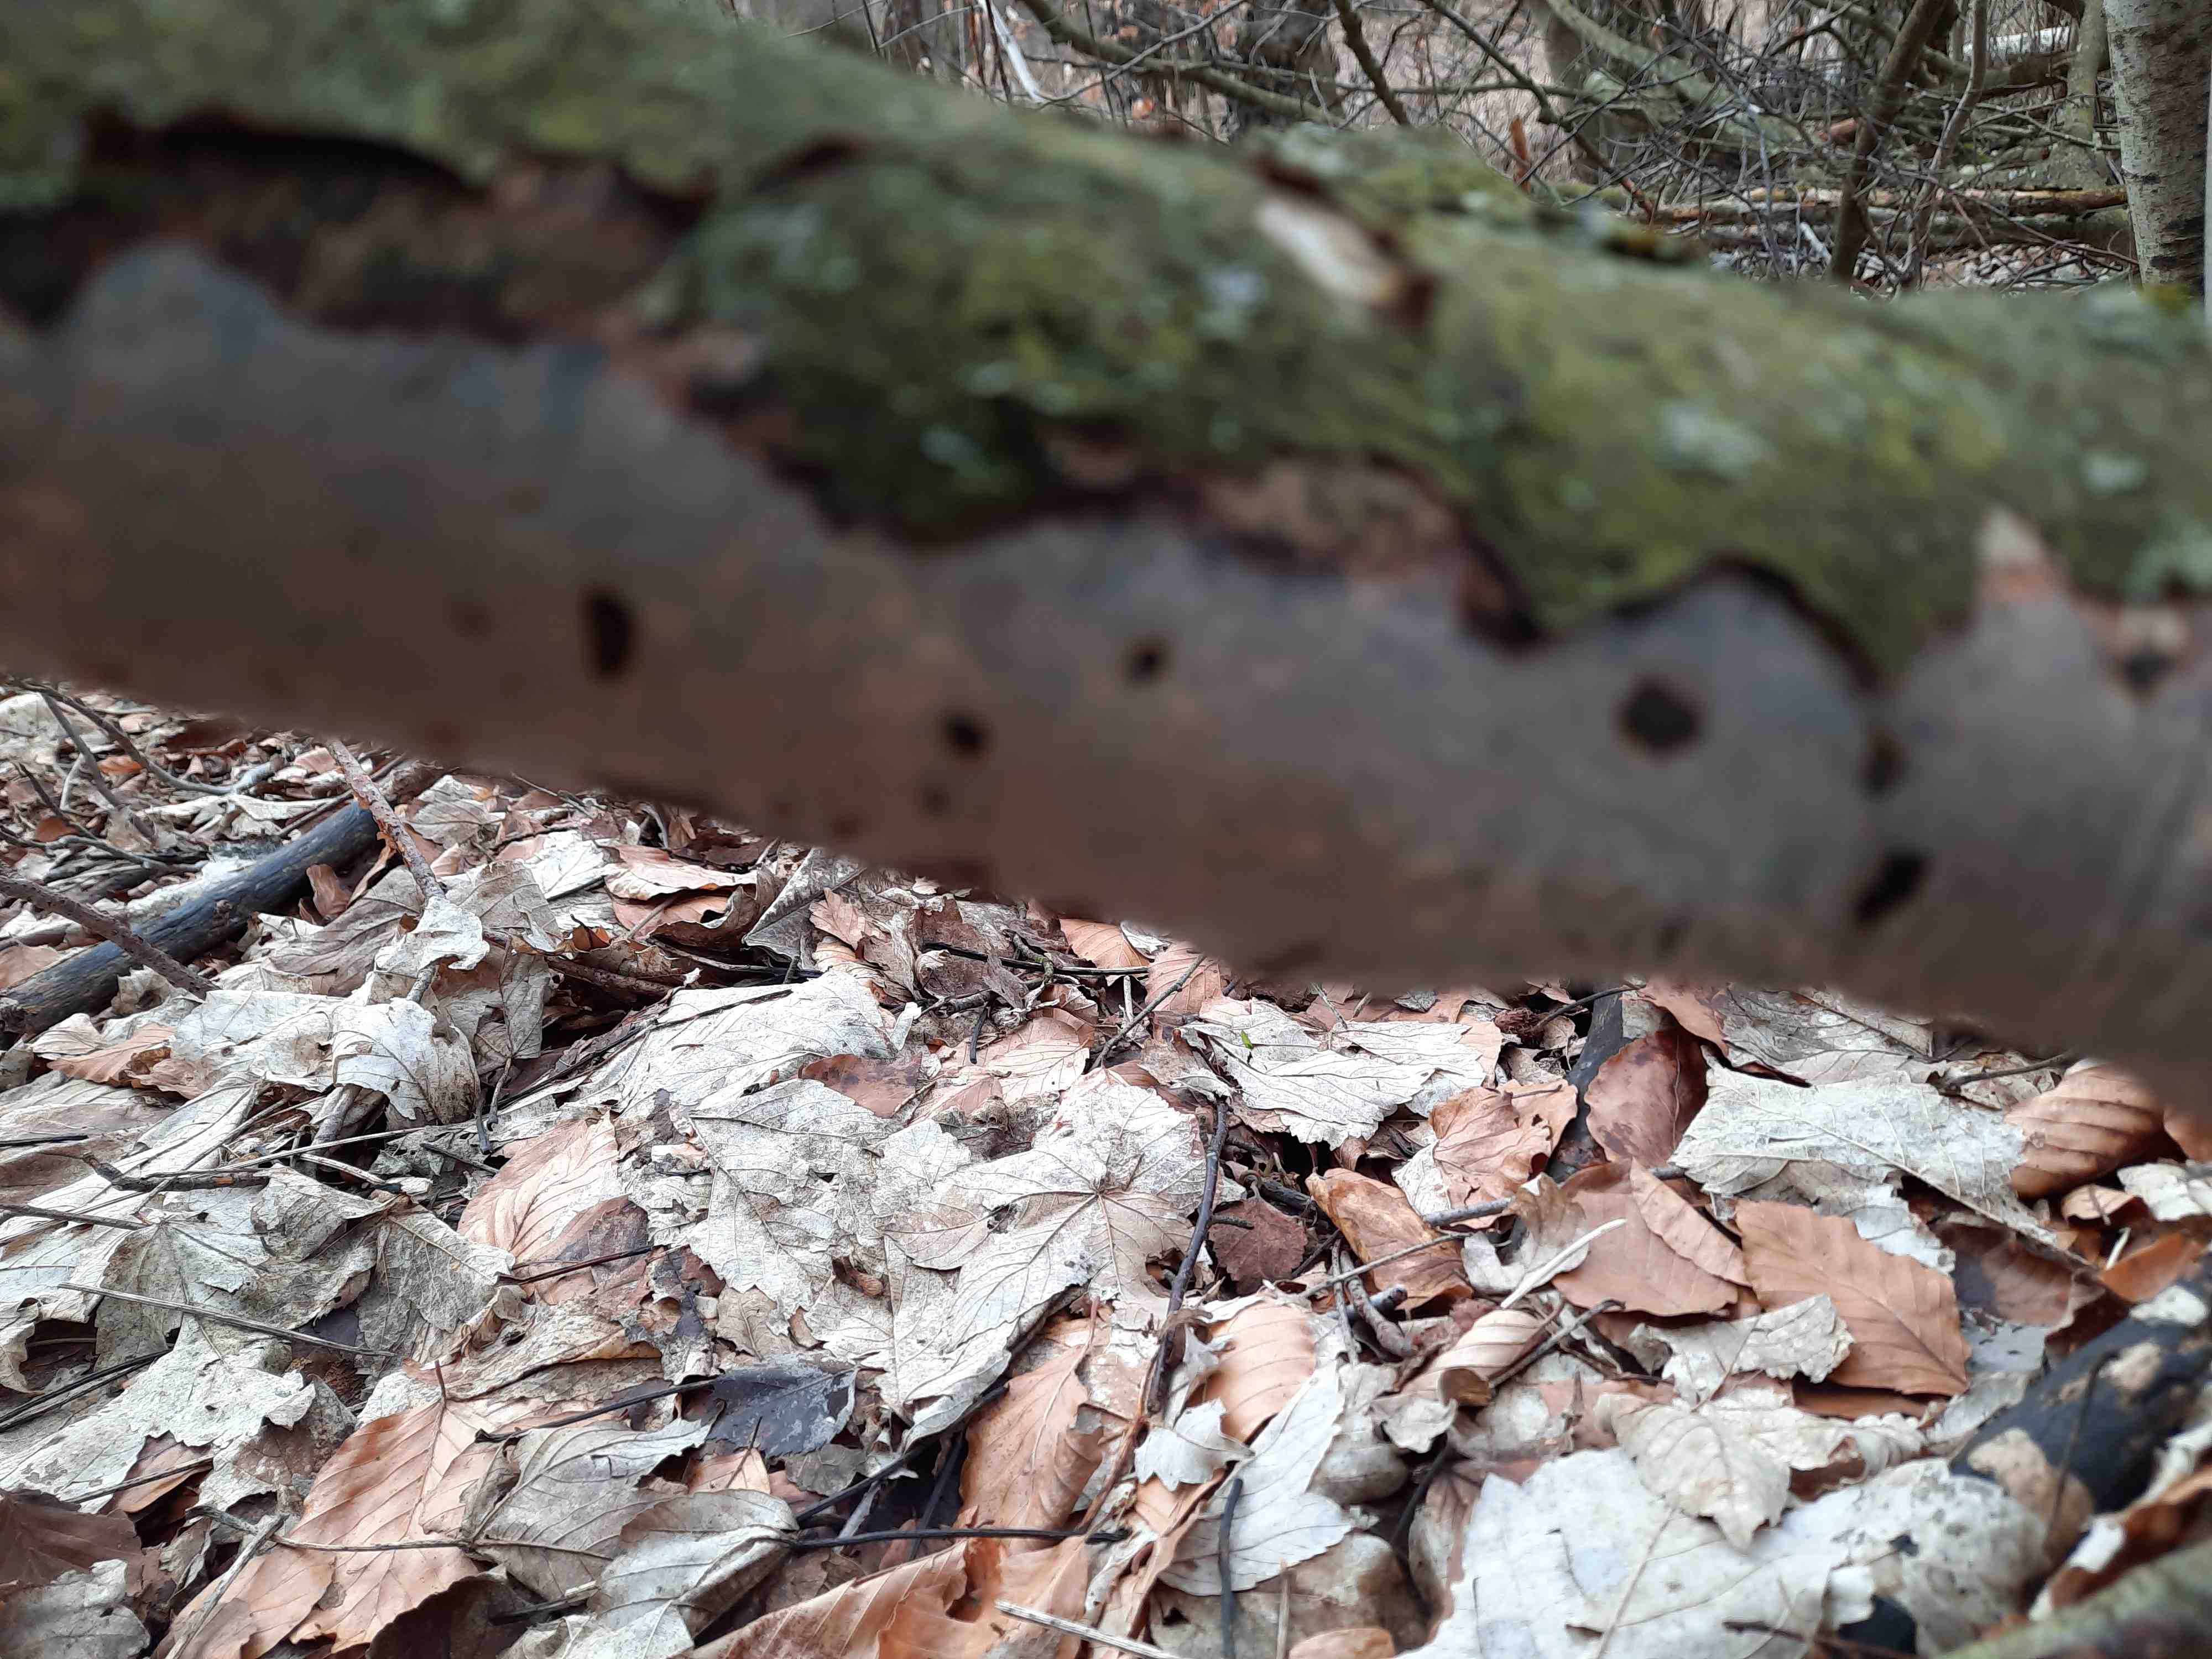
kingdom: Fungi
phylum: Basidiomycota
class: Agaricomycetes
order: Corticiales
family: Vuilleminiaceae
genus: Vuilleminia
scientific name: Vuilleminia comedens
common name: almindelig barksprænger
